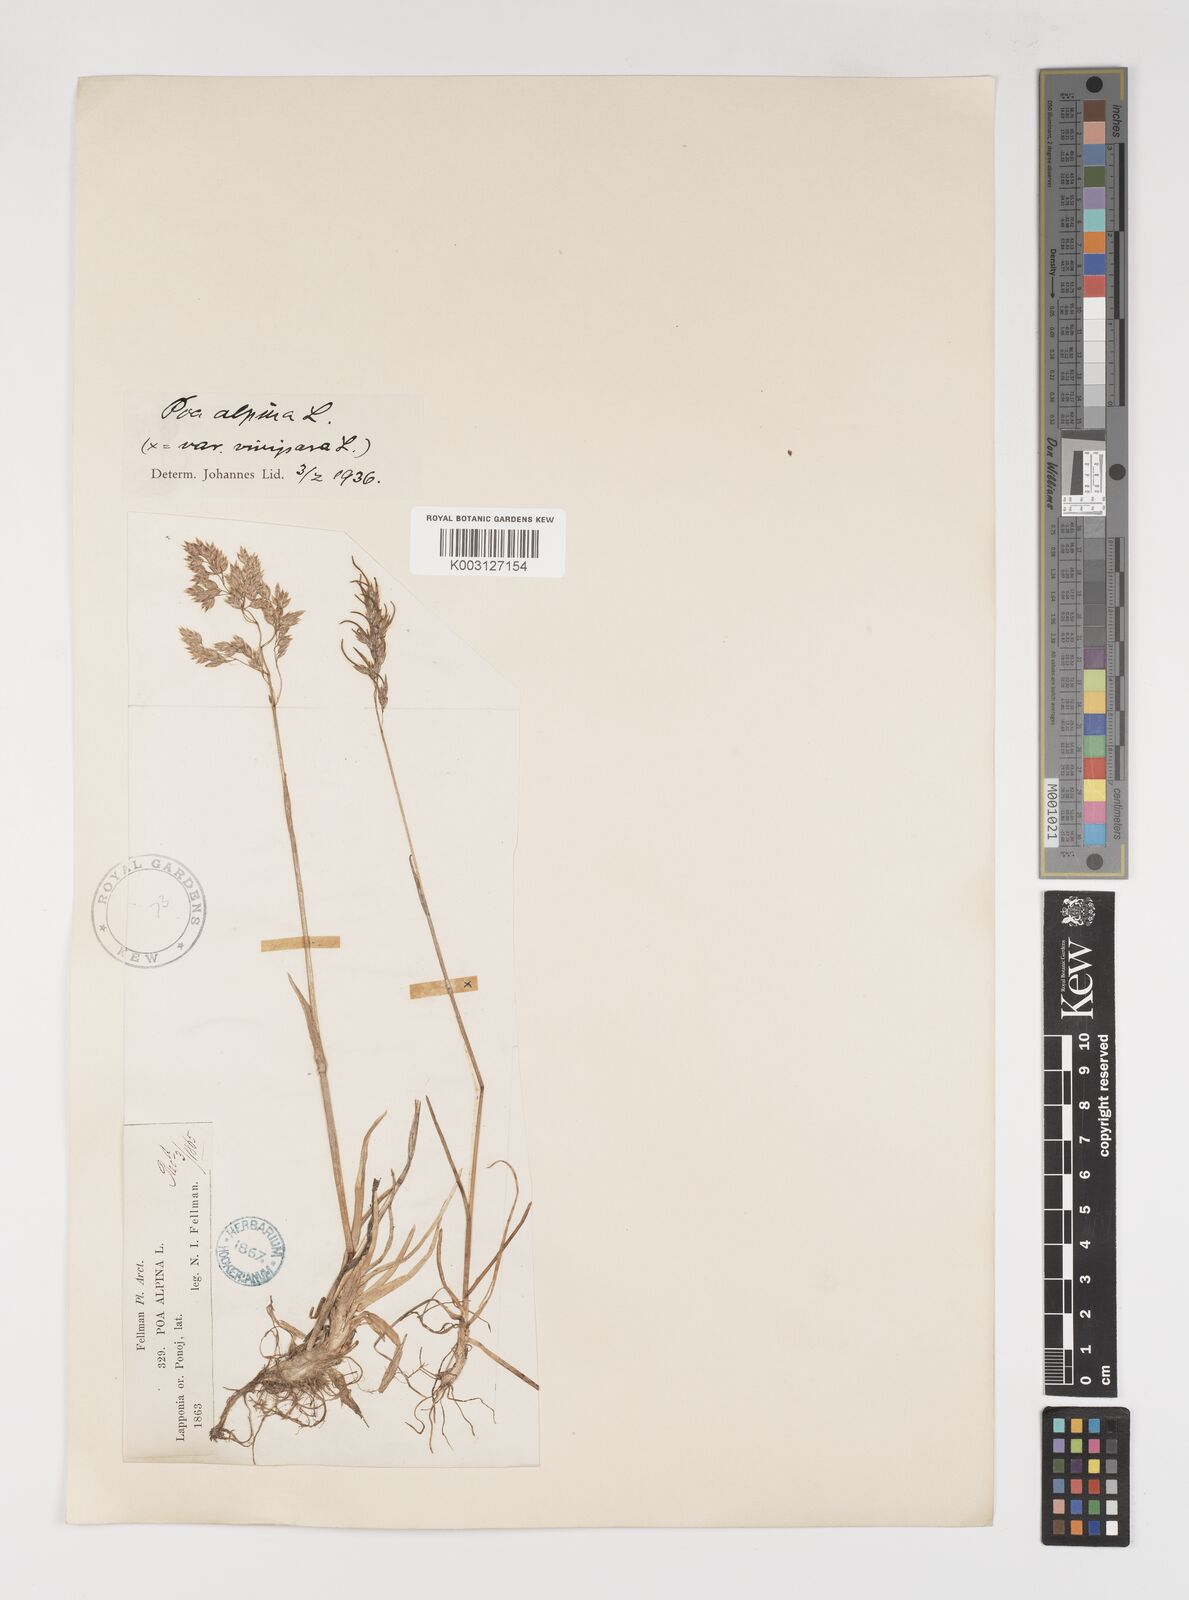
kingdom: Plantae
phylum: Tracheophyta
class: Liliopsida
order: Poales
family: Poaceae
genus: Poa
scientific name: Poa alpina
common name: Alpine bluegrass
